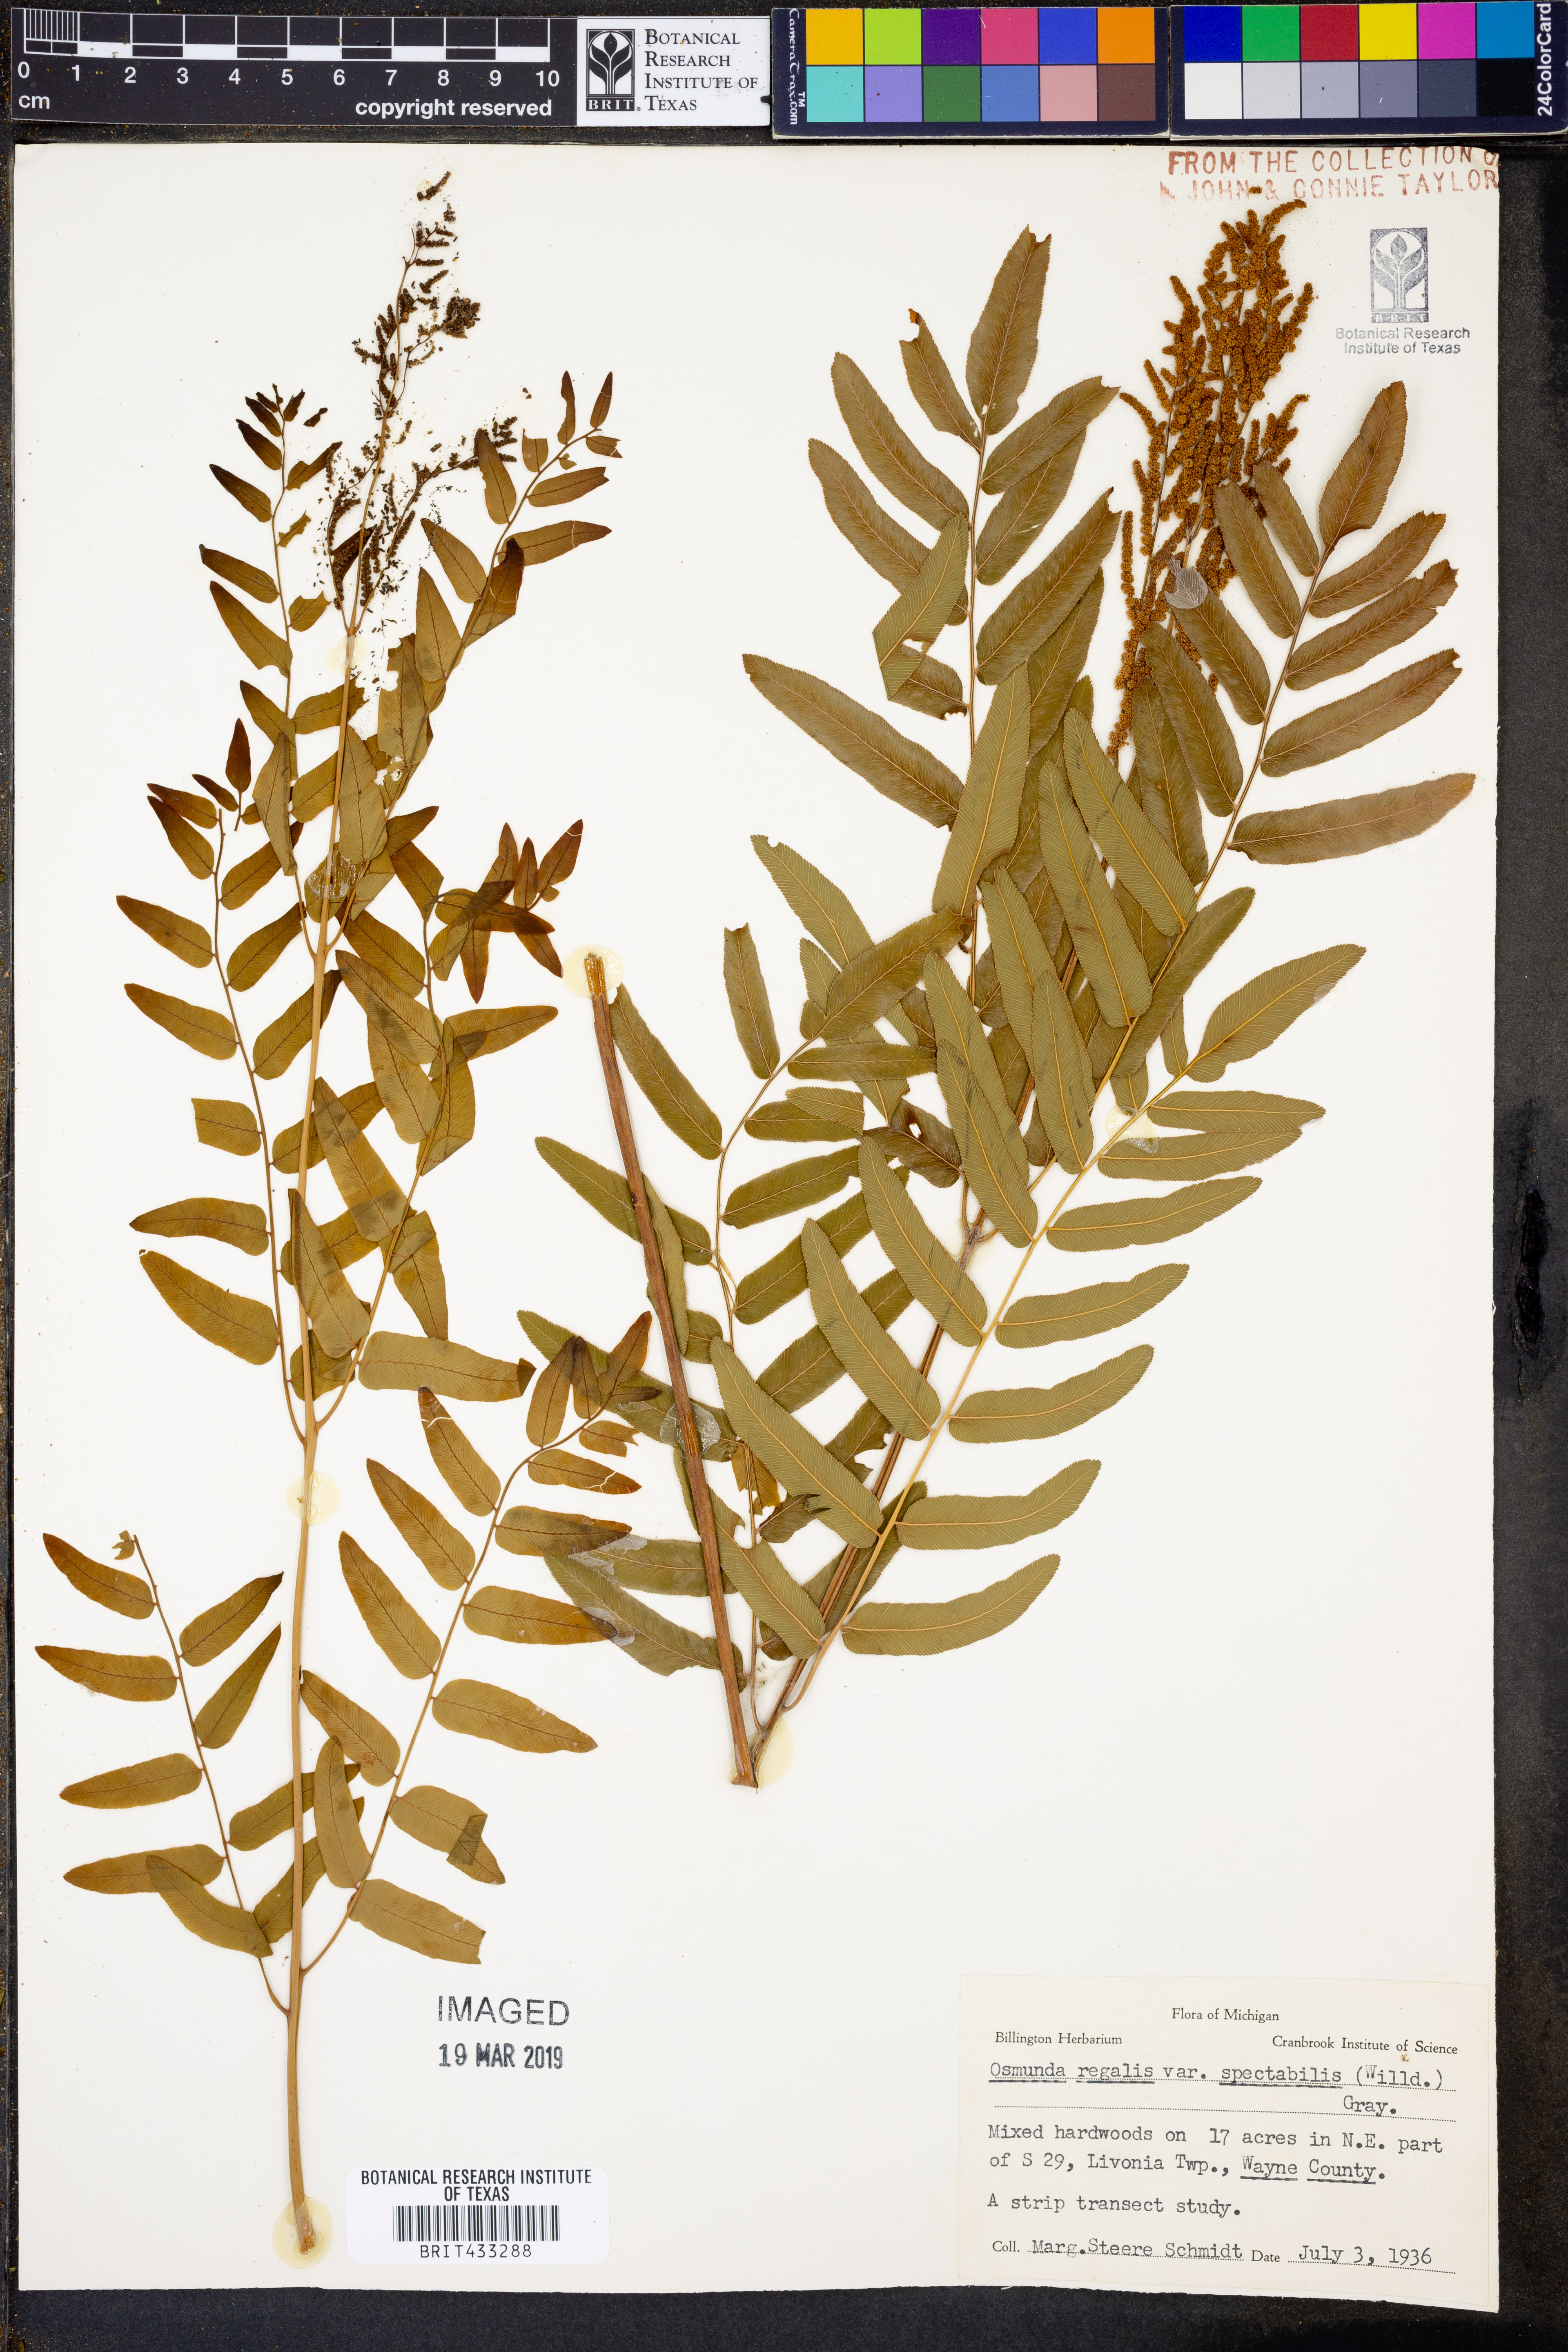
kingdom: Plantae
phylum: Tracheophyta
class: Polypodiopsida
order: Osmundales
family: Osmundaceae
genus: Osmunda
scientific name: Osmunda spectabilis
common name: American royal fern
